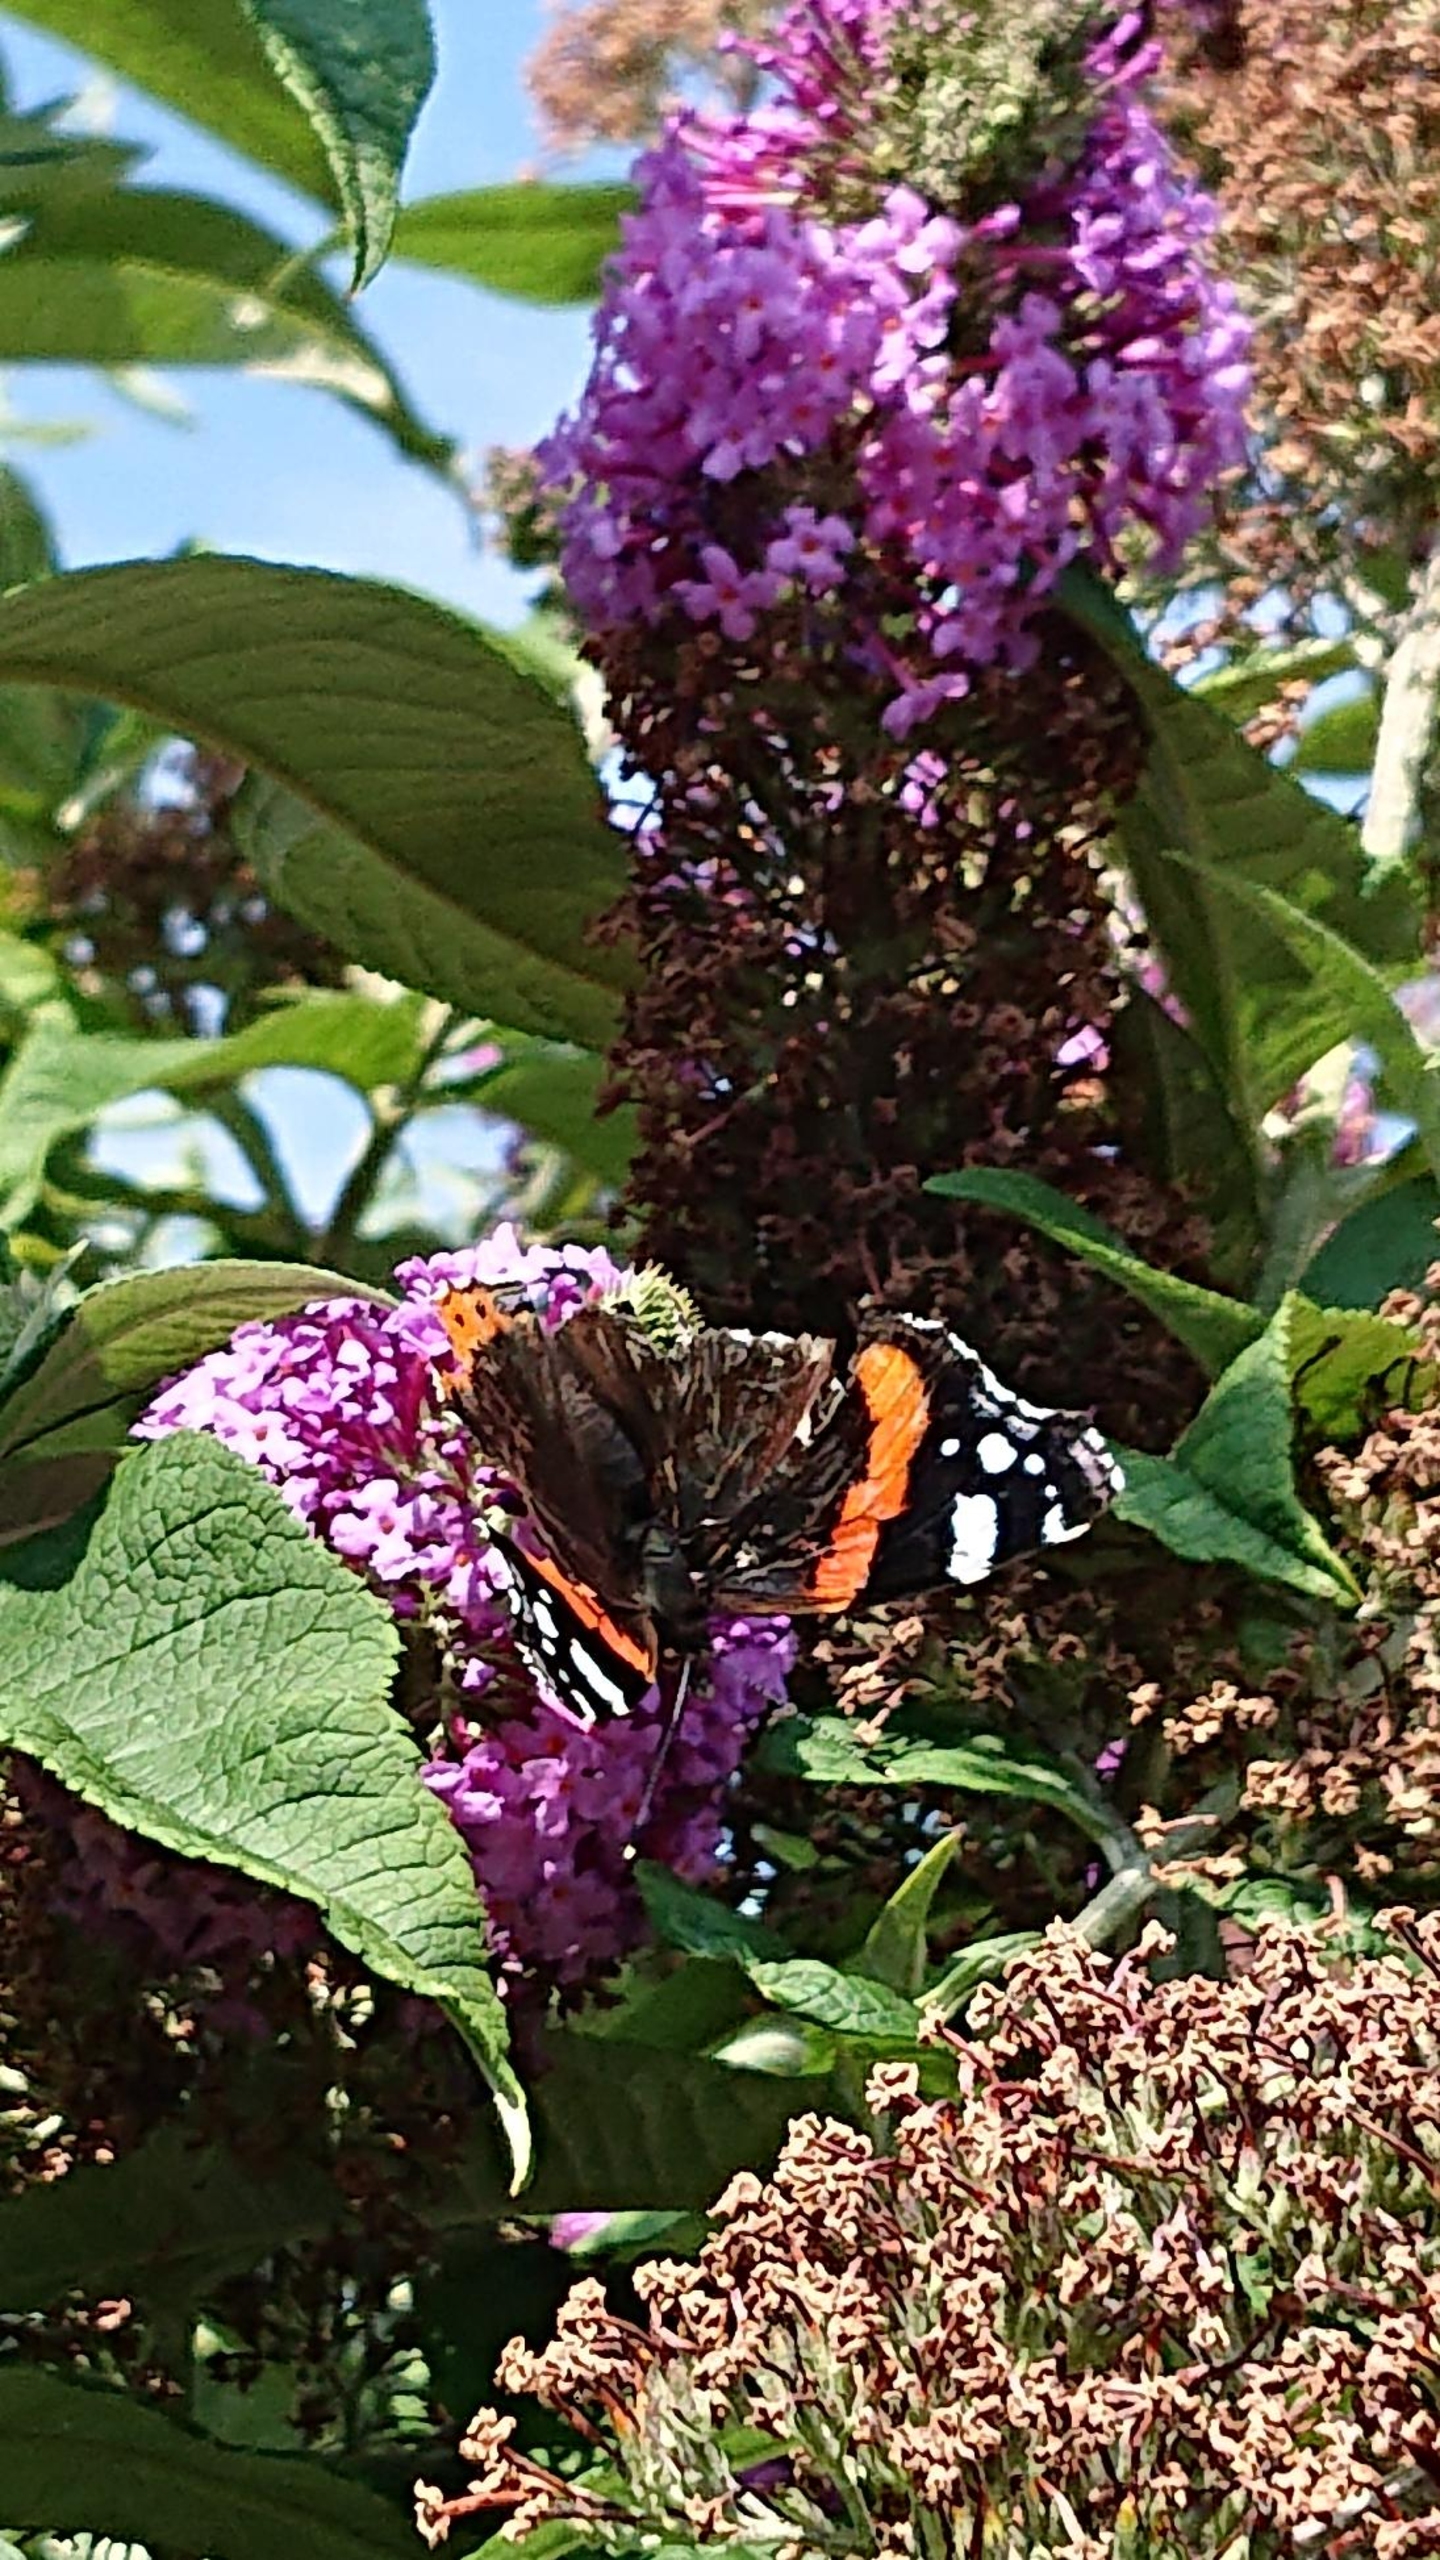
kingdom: Animalia
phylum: Arthropoda
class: Insecta
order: Lepidoptera
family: Nymphalidae
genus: Vanessa
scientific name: Vanessa atalanta
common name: Admiral
